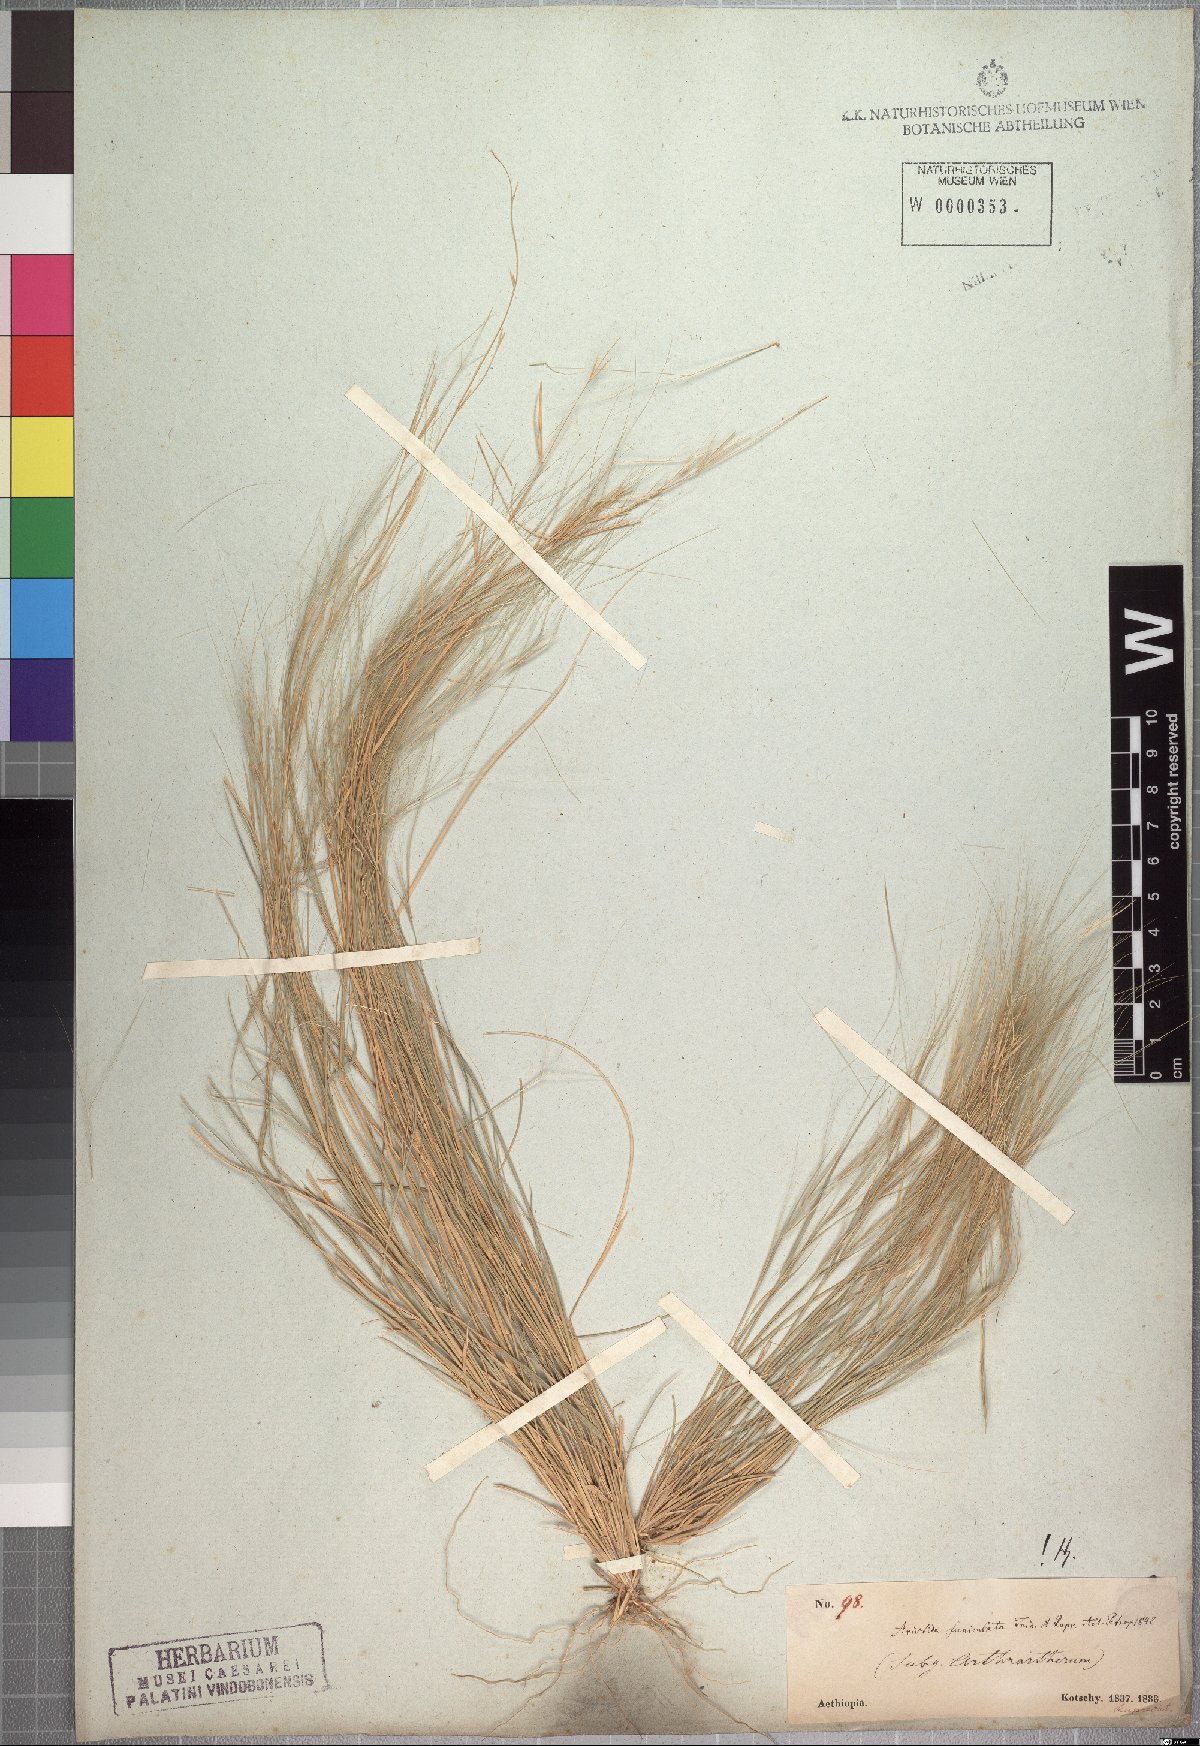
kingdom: Plantae
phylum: Tracheophyta
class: Liliopsida
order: Poales
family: Poaceae
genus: Aristida
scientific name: Aristida funiculata
